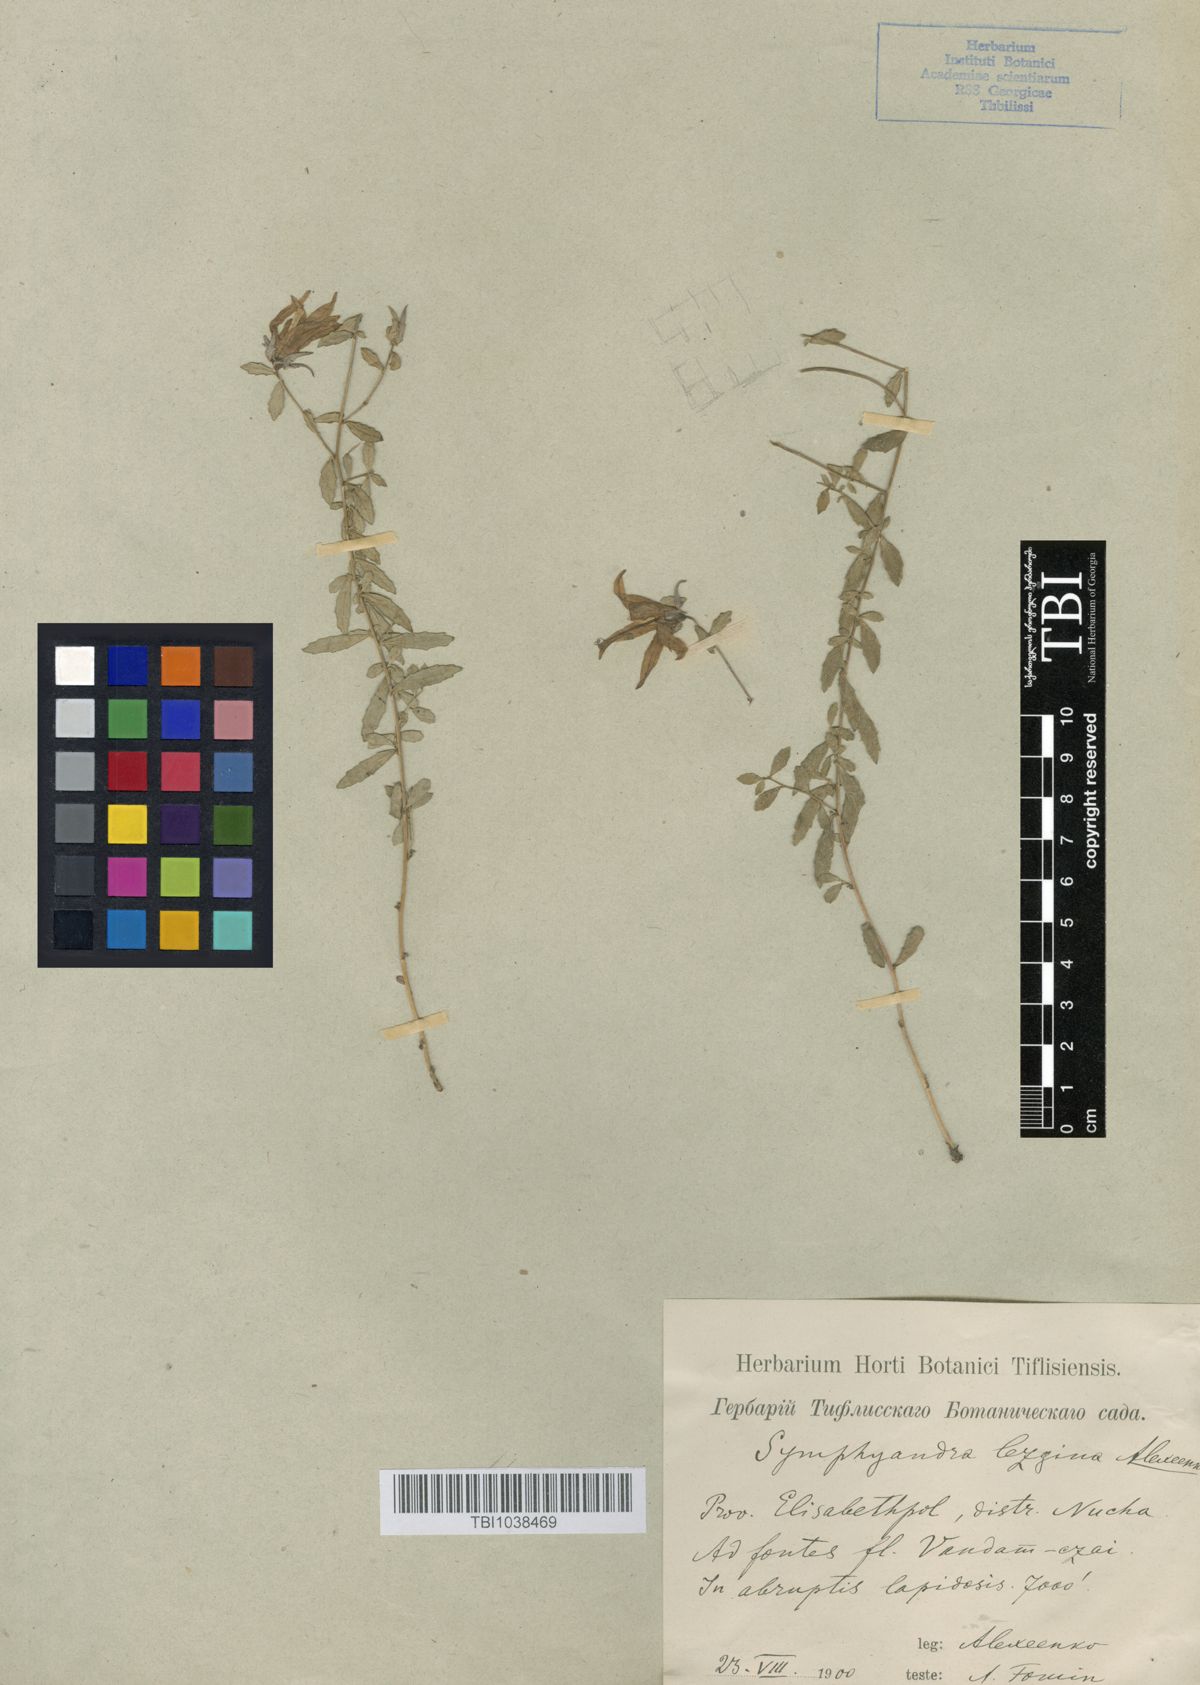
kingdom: Plantae
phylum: Tracheophyta
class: Magnoliopsida
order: Asterales
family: Campanulaceae
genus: Campanula
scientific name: Campanula lezgina
